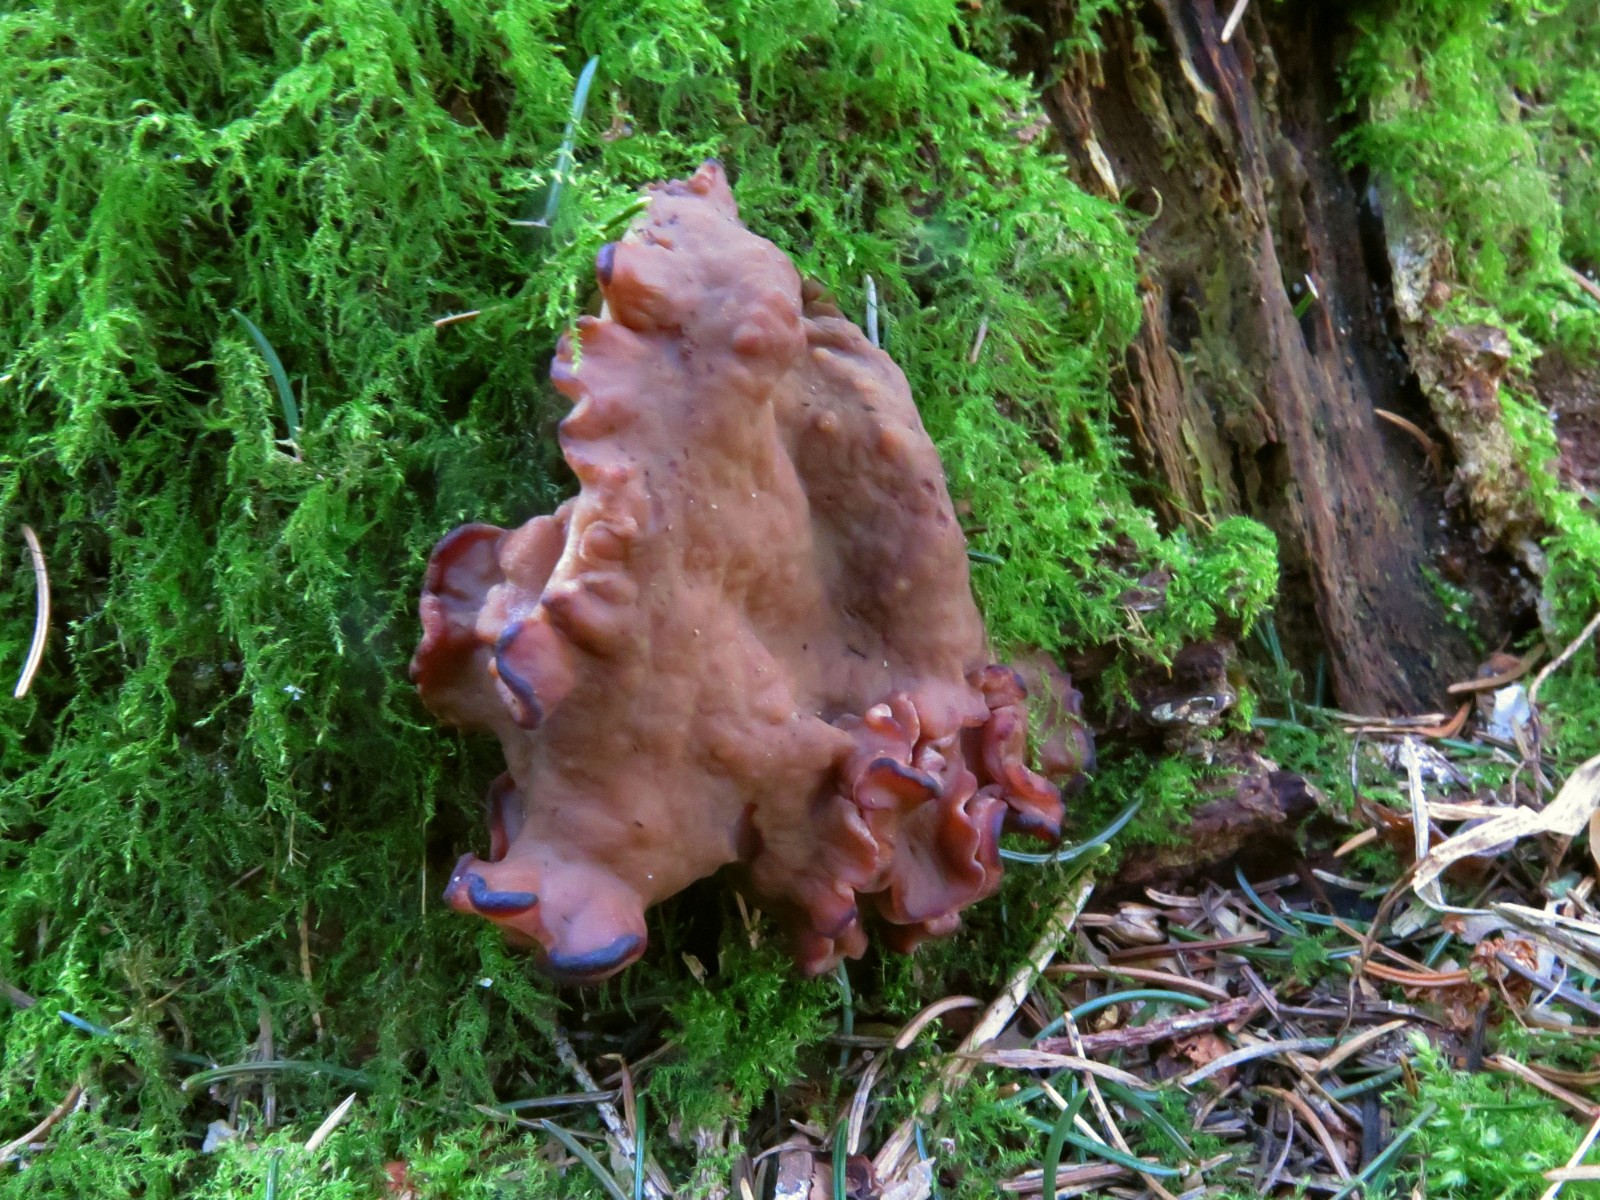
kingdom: Fungi
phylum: Ascomycota
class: Pezizomycetes
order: Pezizales
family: Discinaceae
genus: Discina
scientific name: Discina ancilis
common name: udbredt stenmorkel
